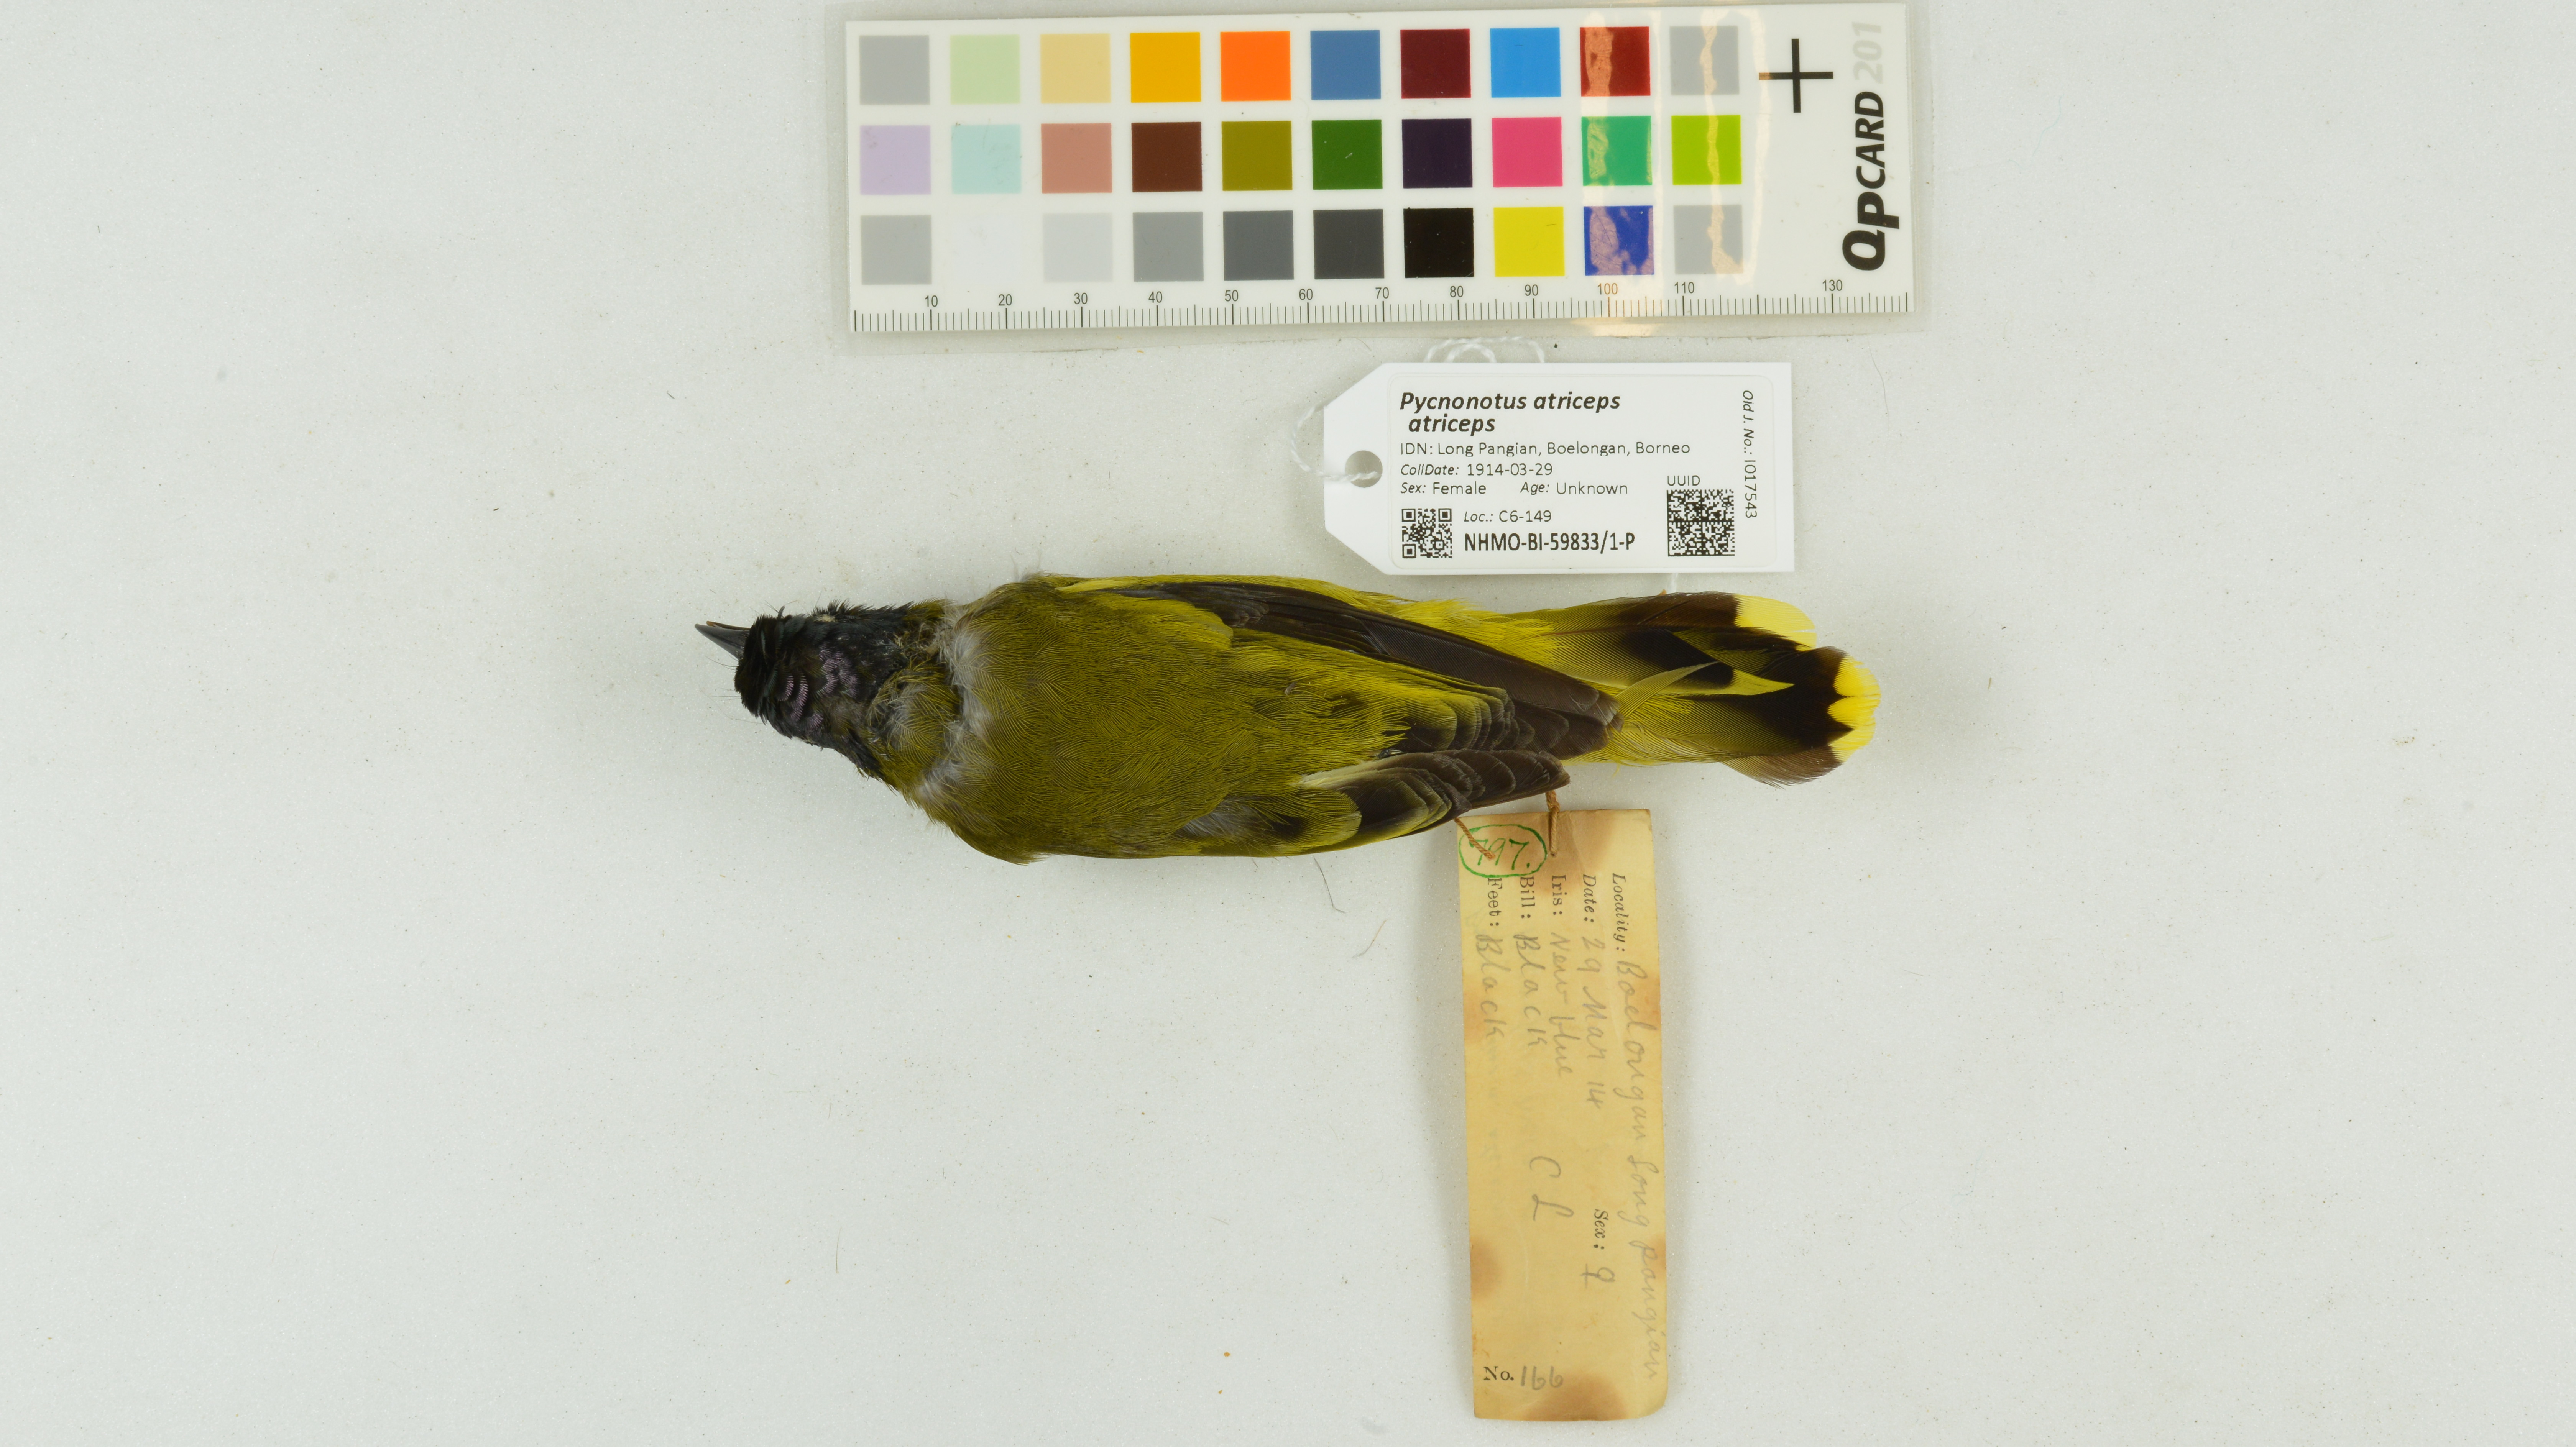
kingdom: Animalia
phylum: Chordata
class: Aves
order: Passeriformes
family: Pycnonotidae
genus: Brachypodius
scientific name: Brachypodius melanocephalos
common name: Black-headed bulbul
